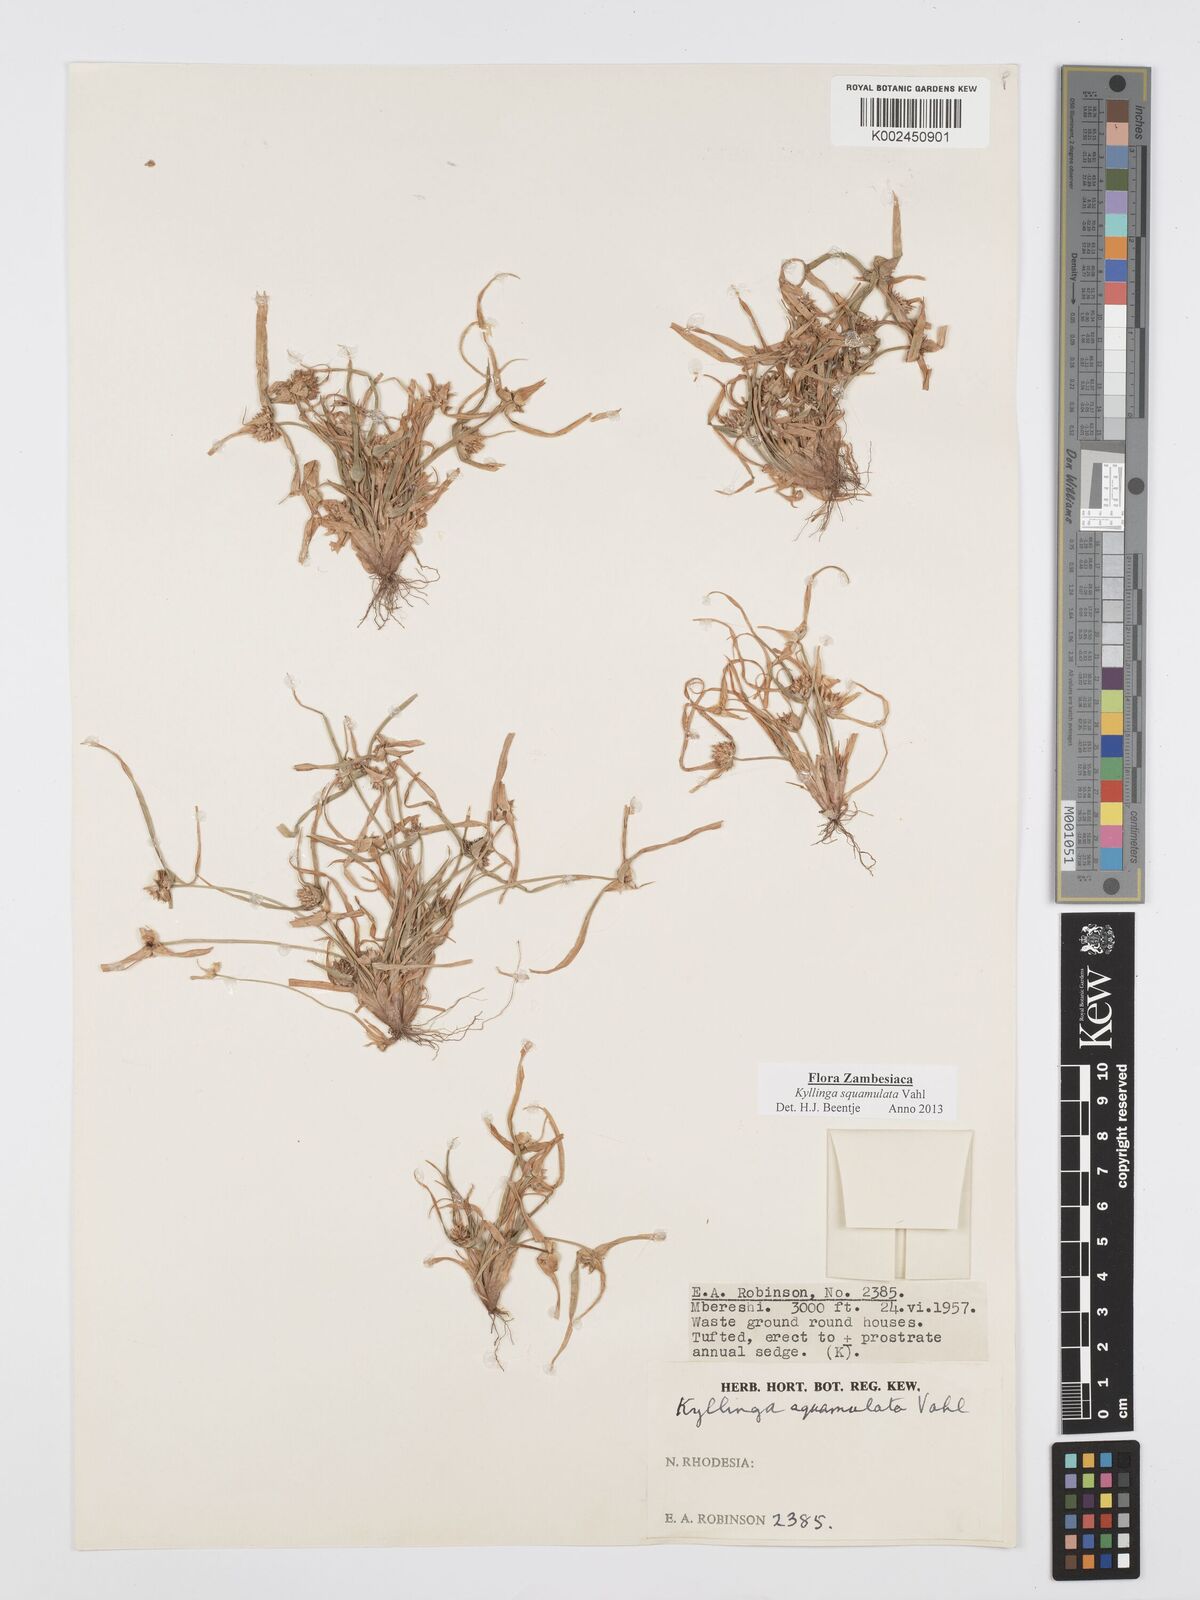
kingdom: Plantae
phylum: Tracheophyta
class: Liliopsida
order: Poales
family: Cyperaceae
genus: Cyperus
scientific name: Cyperus distans
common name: Slender cyperus
